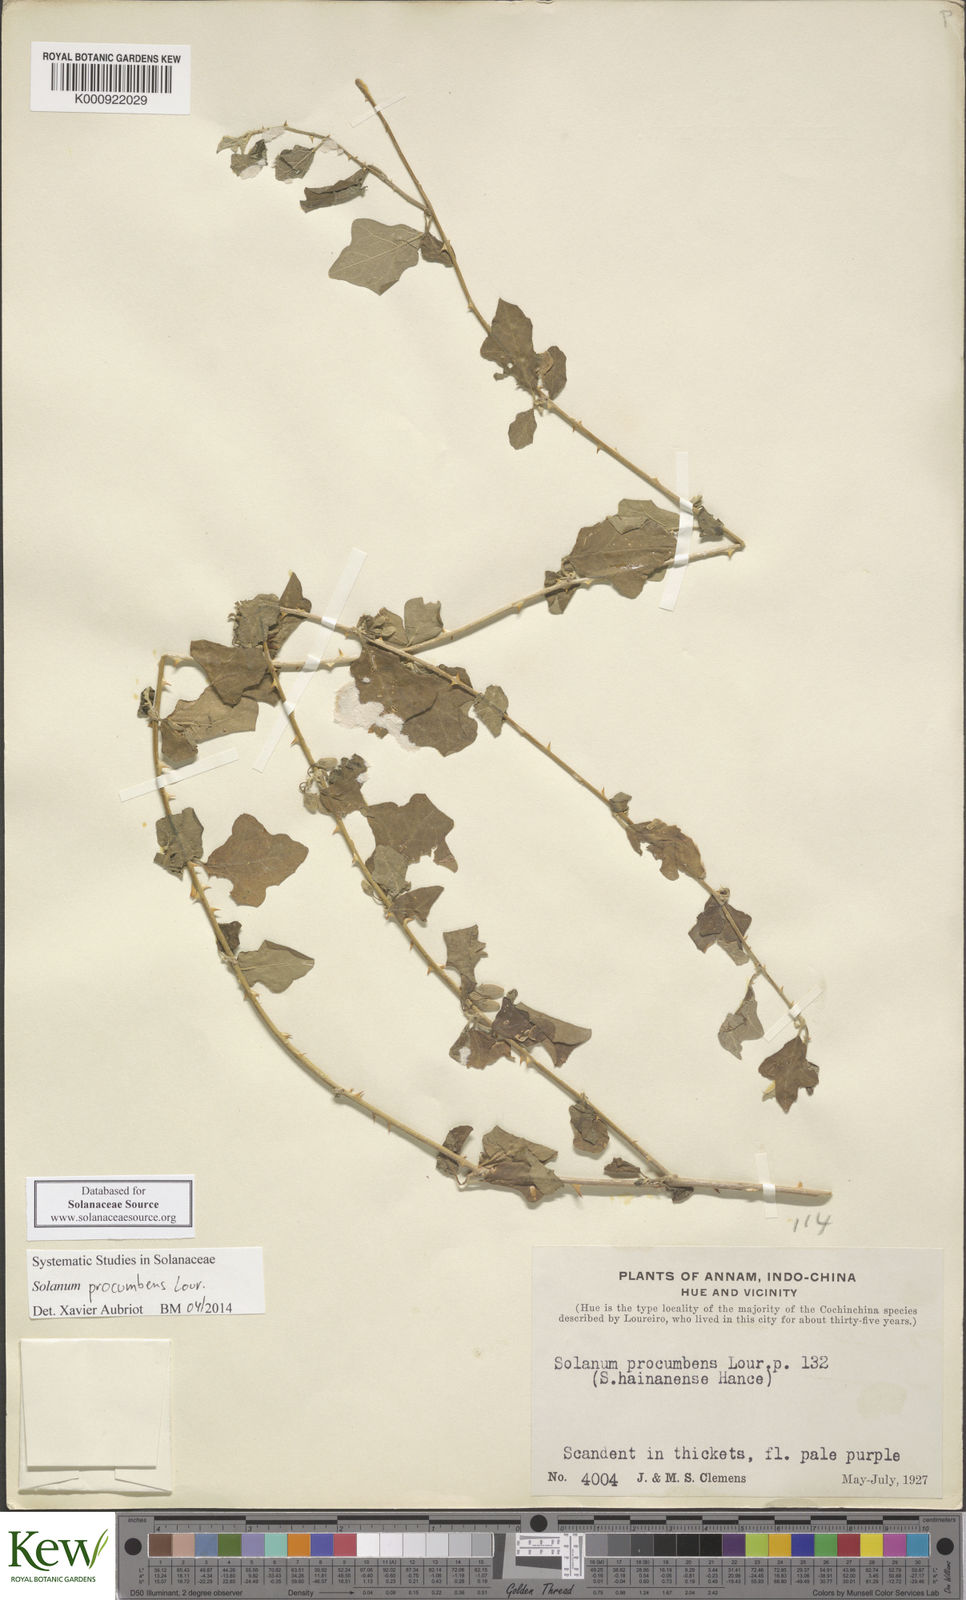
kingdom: Plantae
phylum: Tracheophyta
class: Magnoliopsida
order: Solanales
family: Solanaceae
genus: Solanum
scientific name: Solanum procumbens
